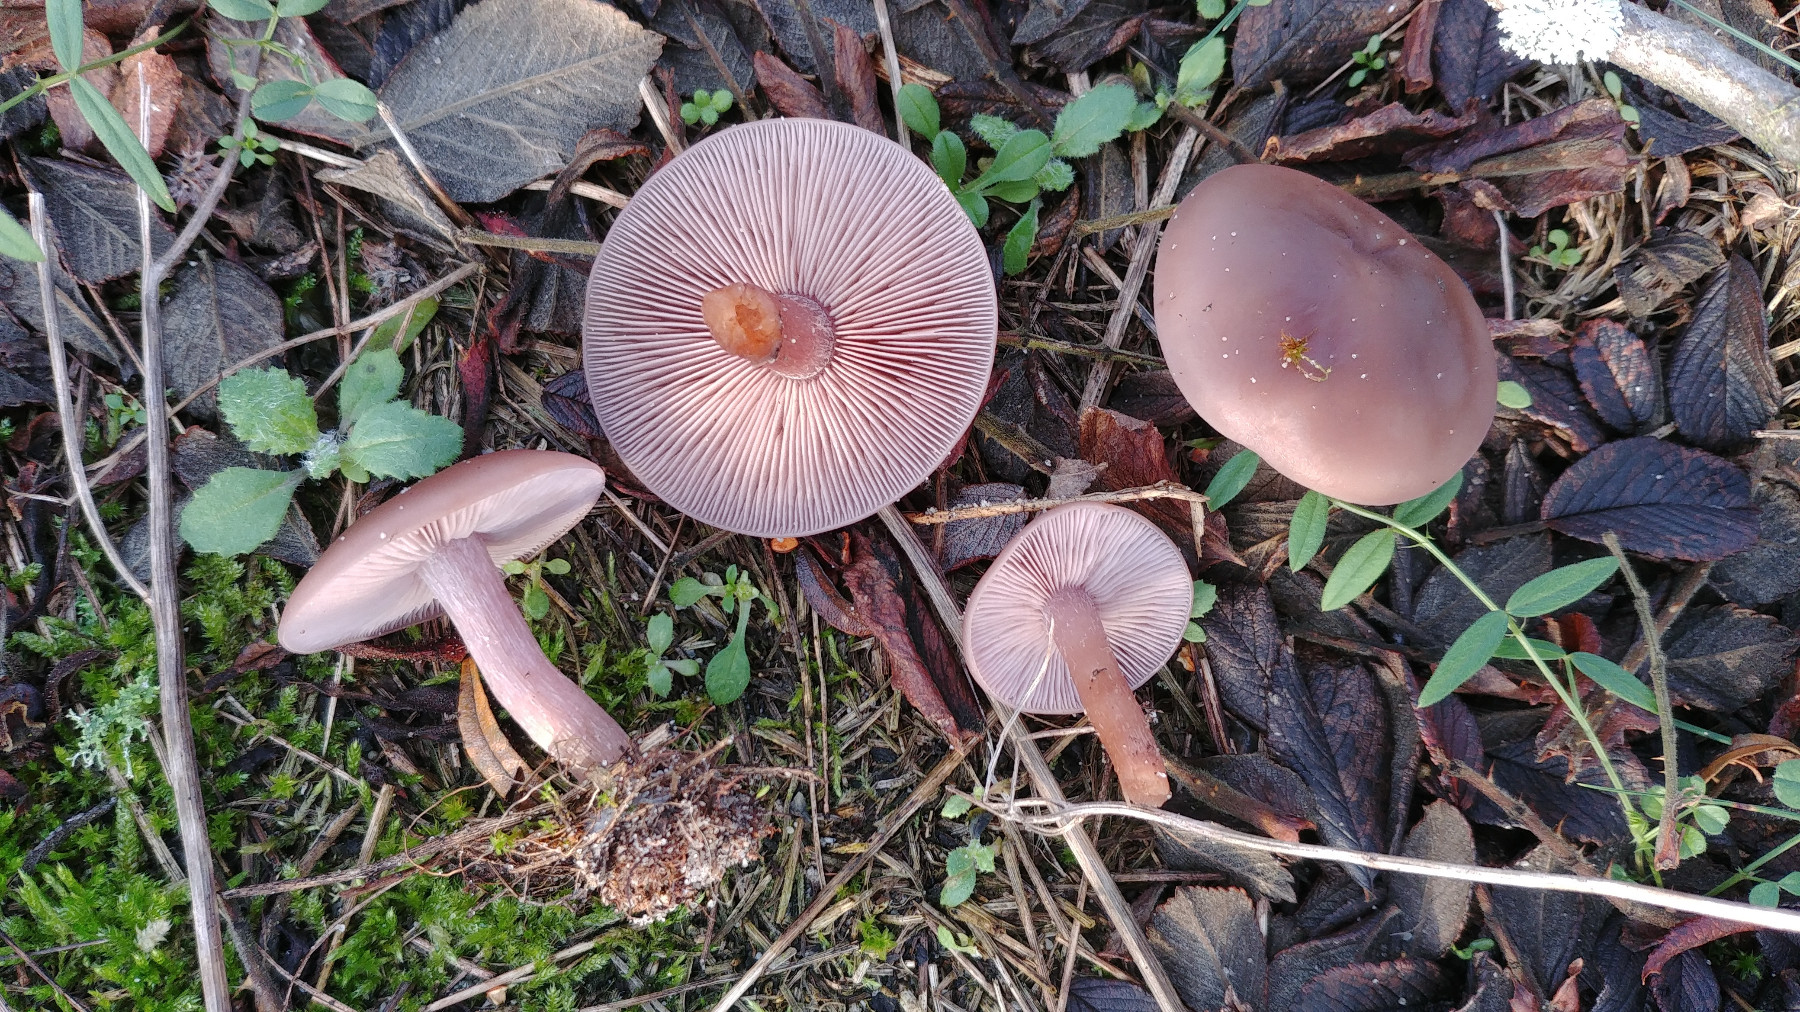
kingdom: Fungi
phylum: Basidiomycota
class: Agaricomycetes
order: Agaricales
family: Tricholomataceae
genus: Lepista
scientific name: Lepista nuda
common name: violet hekseringshat
